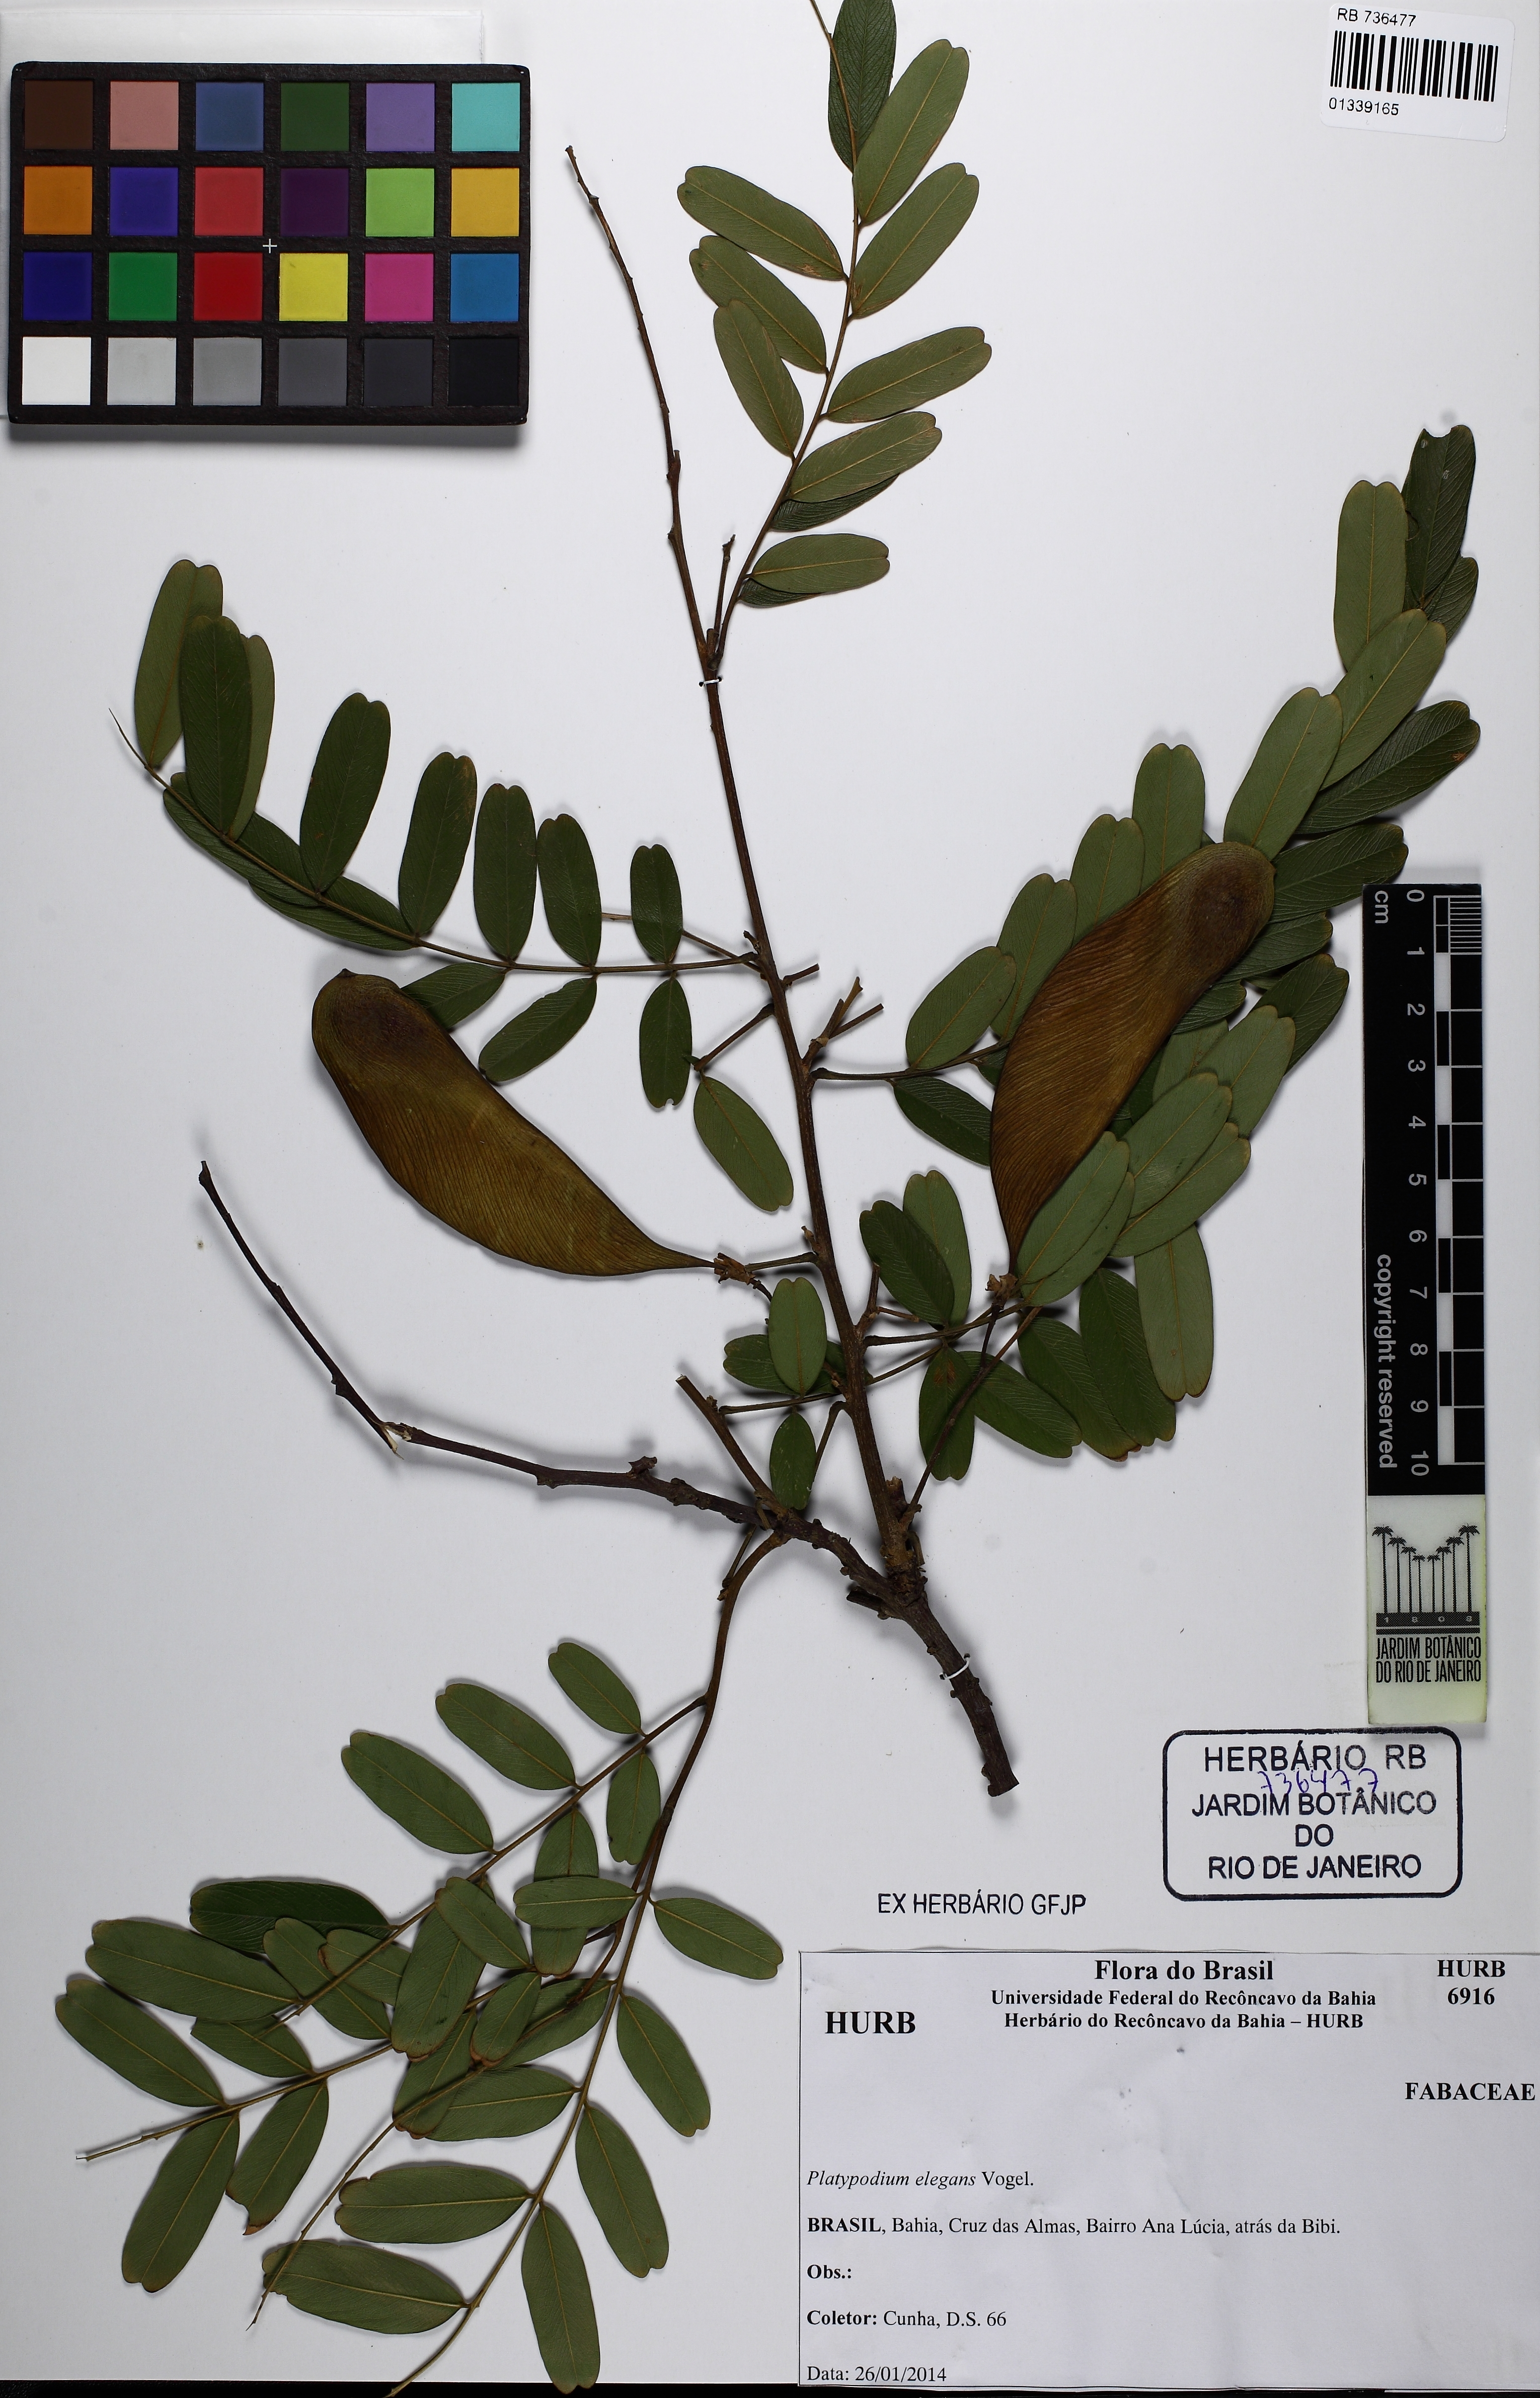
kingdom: Plantae
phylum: Tracheophyta
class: Magnoliopsida
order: Fabales
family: Fabaceae
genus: Platypodium
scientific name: Platypodium elegans
